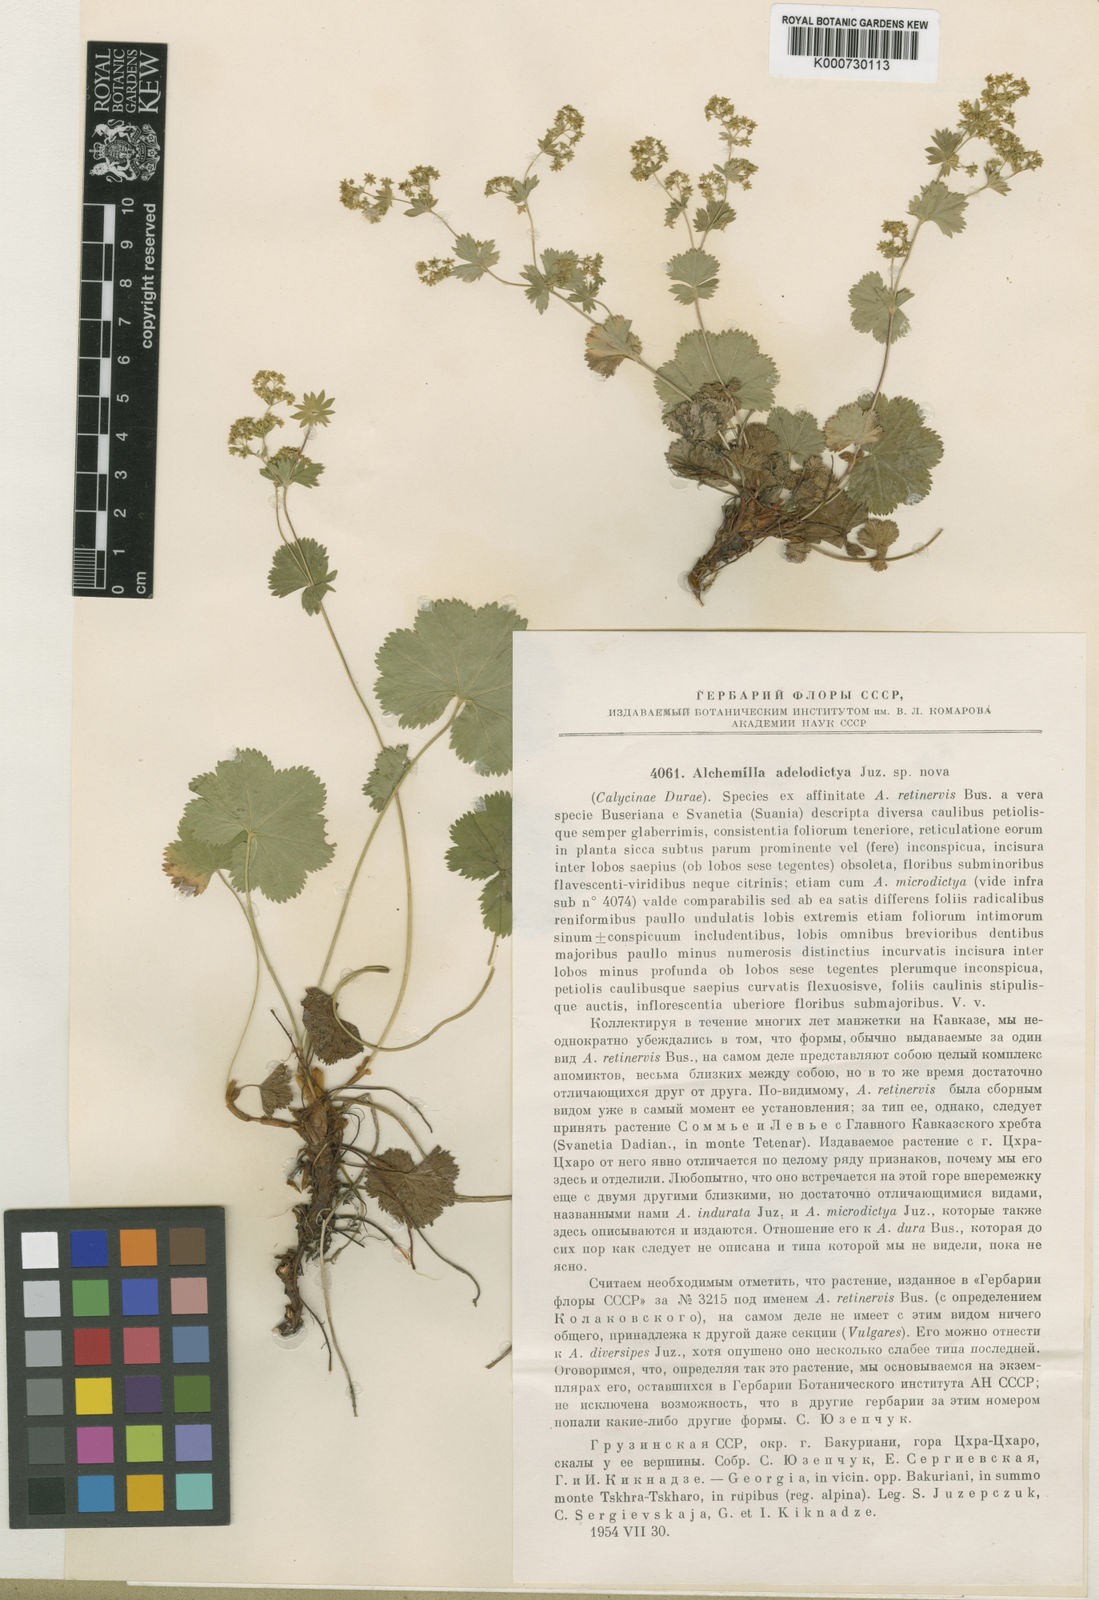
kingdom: Plantae
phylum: Tracheophyta
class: Magnoliopsida
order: Rosales
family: Rosaceae
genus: Alchemilla
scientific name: Alchemilla adelodictya
